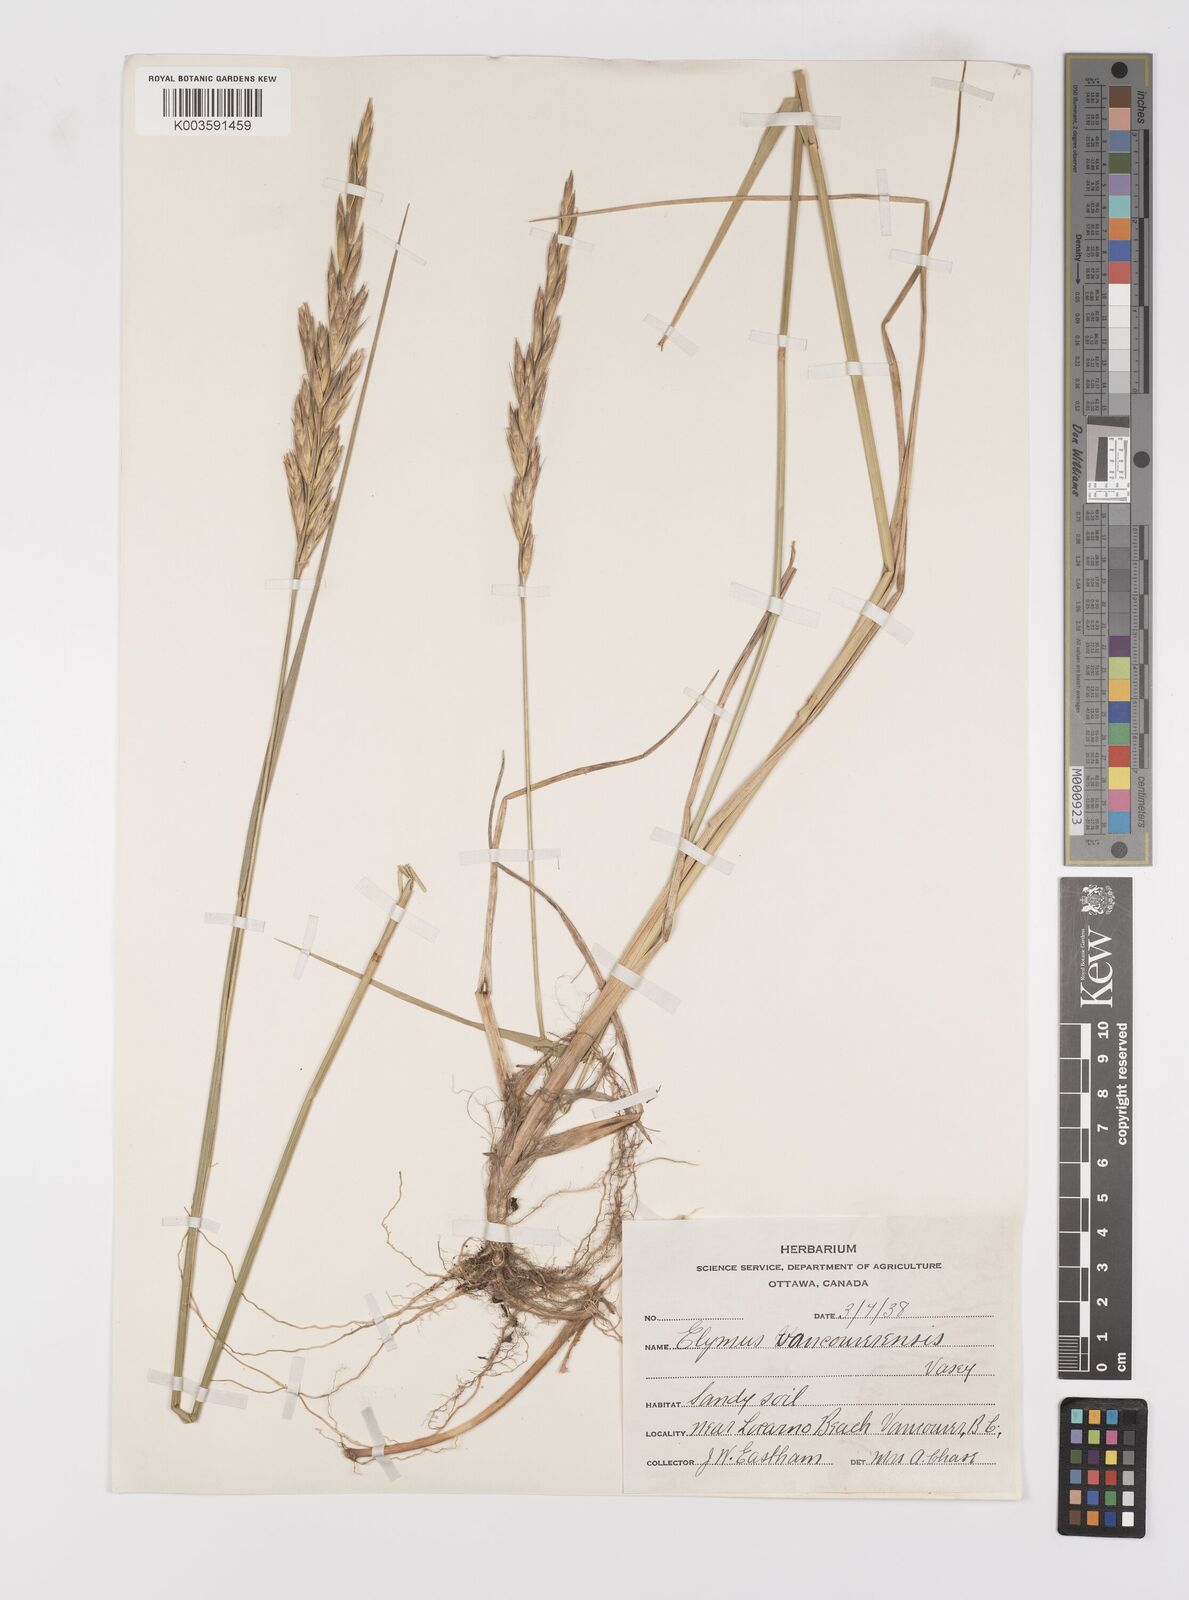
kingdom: Plantae
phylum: Tracheophyta
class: Liliopsida
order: Poales
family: Poaceae
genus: Leymus
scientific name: Leymus vancouverensis
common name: Vancouver wild rye
